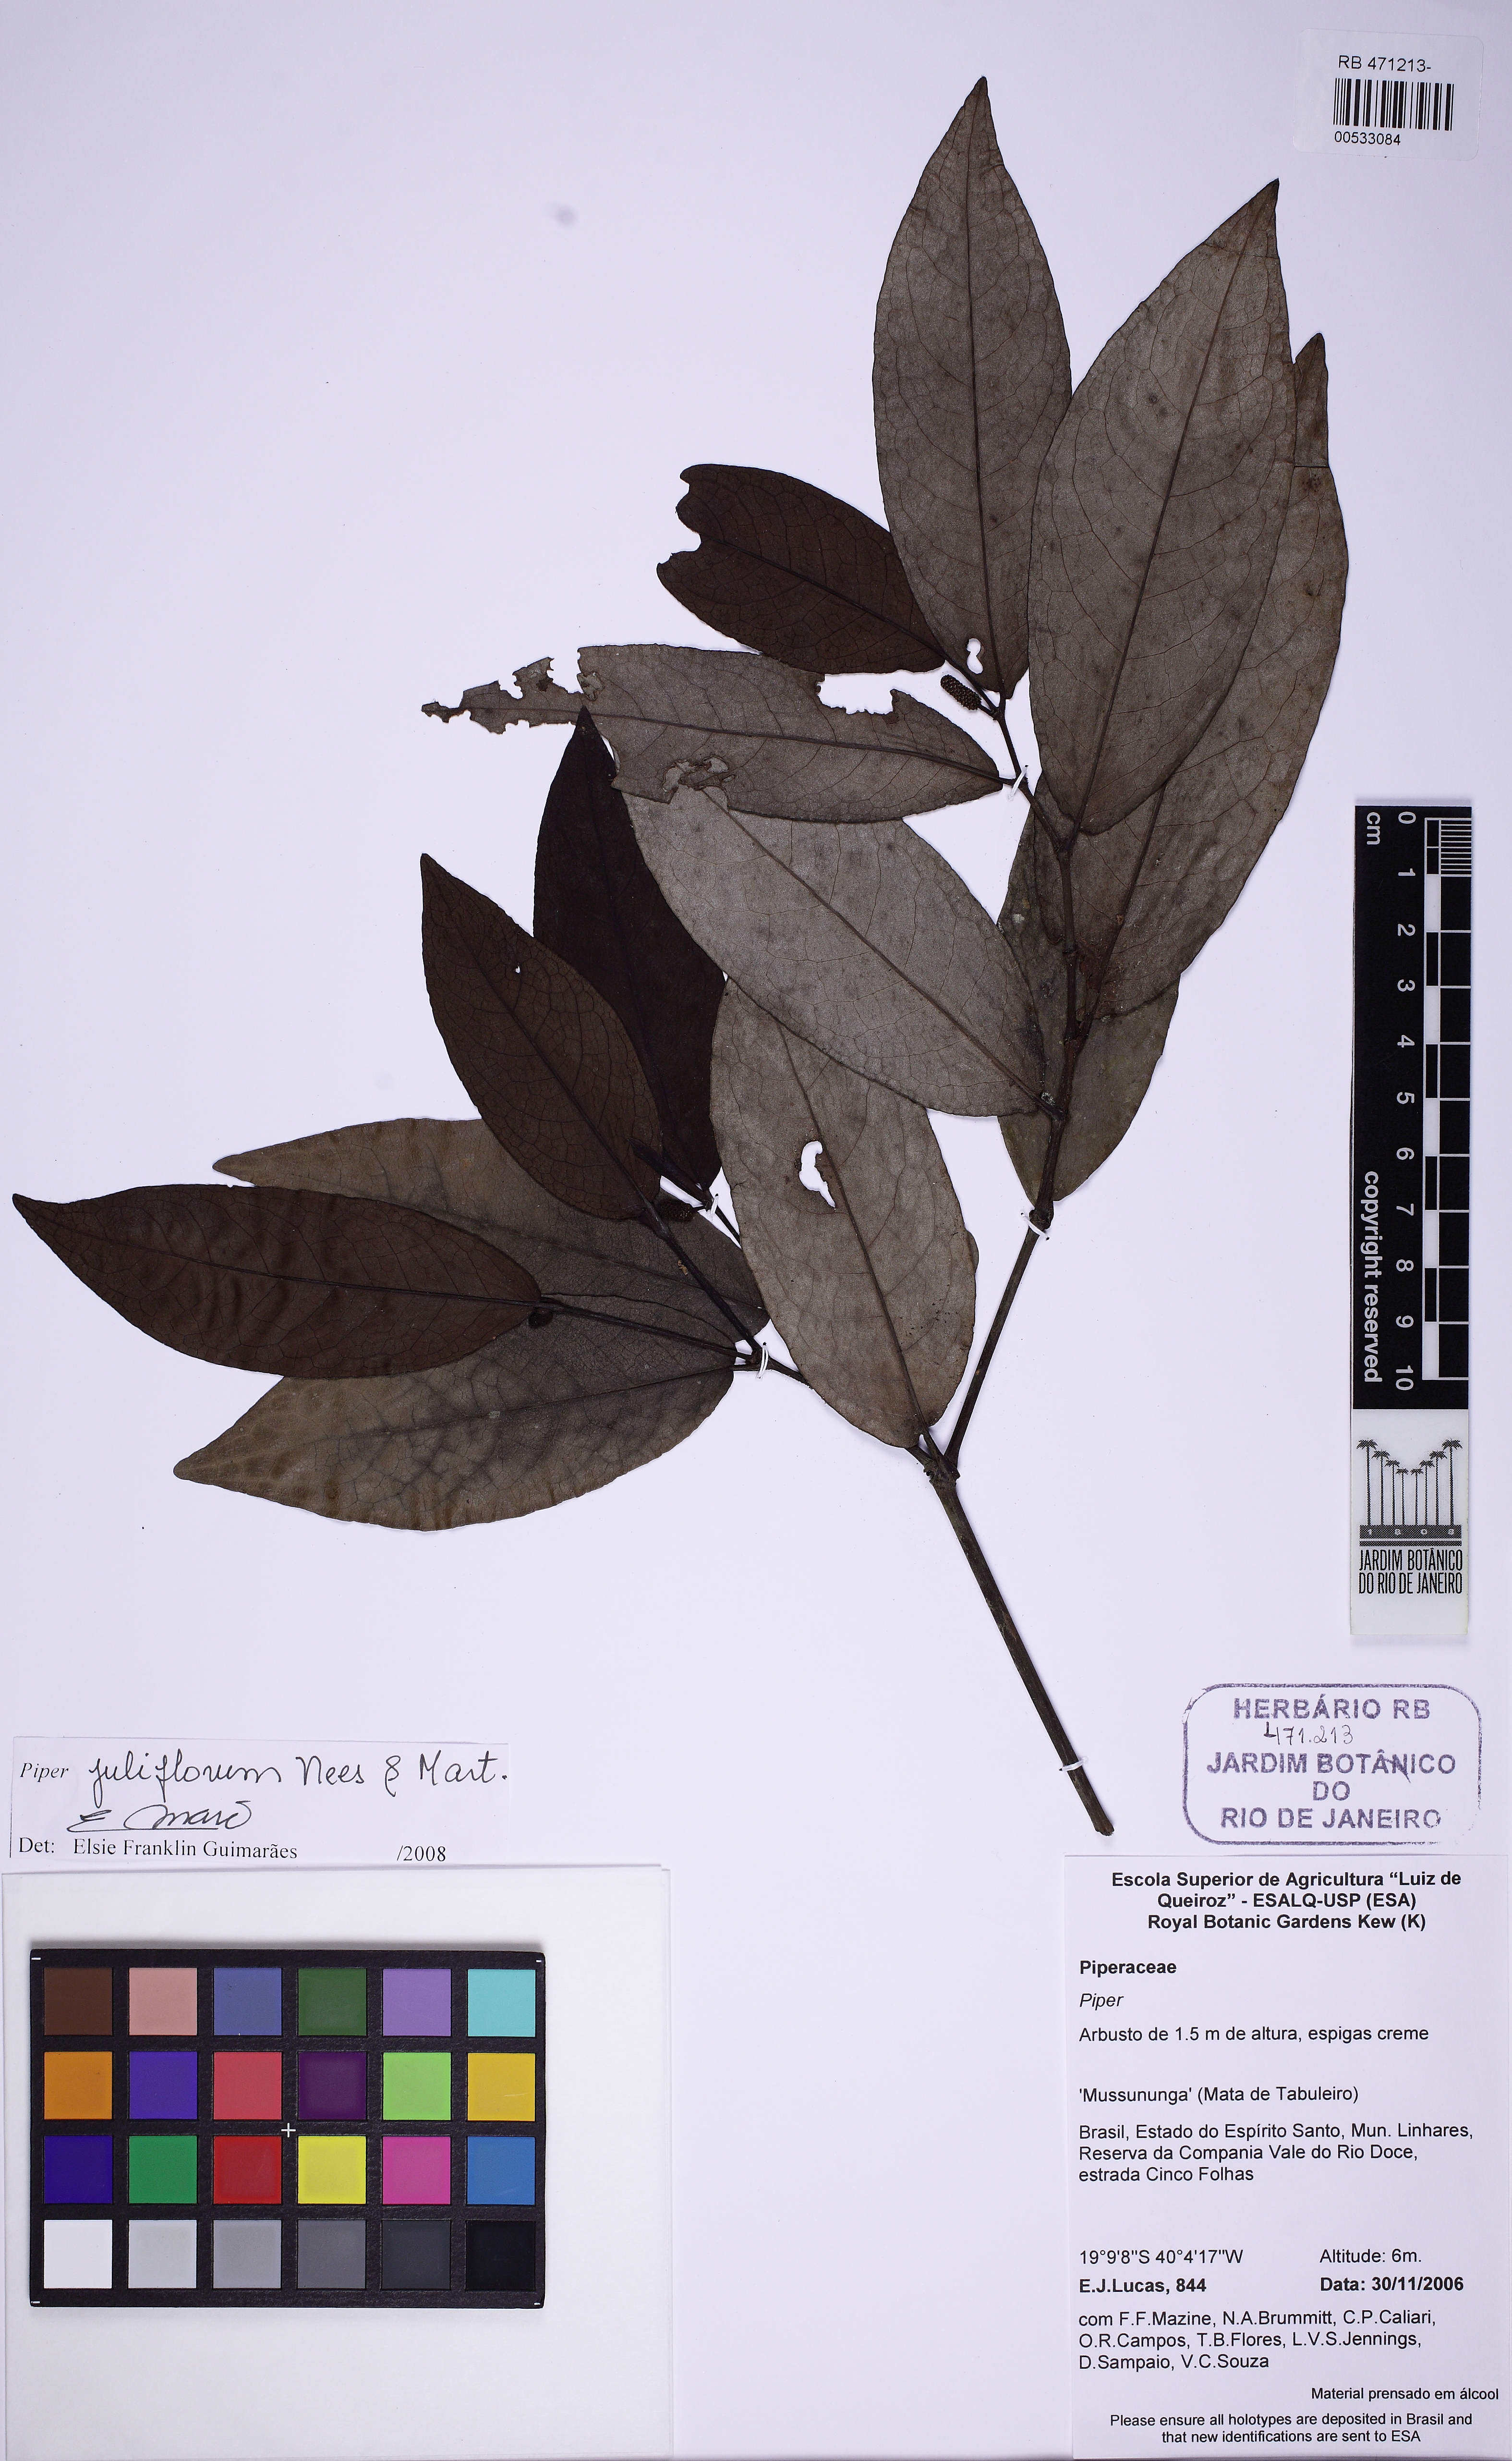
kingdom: Plantae
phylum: Tracheophyta
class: Magnoliopsida
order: Piperales
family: Piperaceae
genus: Piper
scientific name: Piper juliflorum
